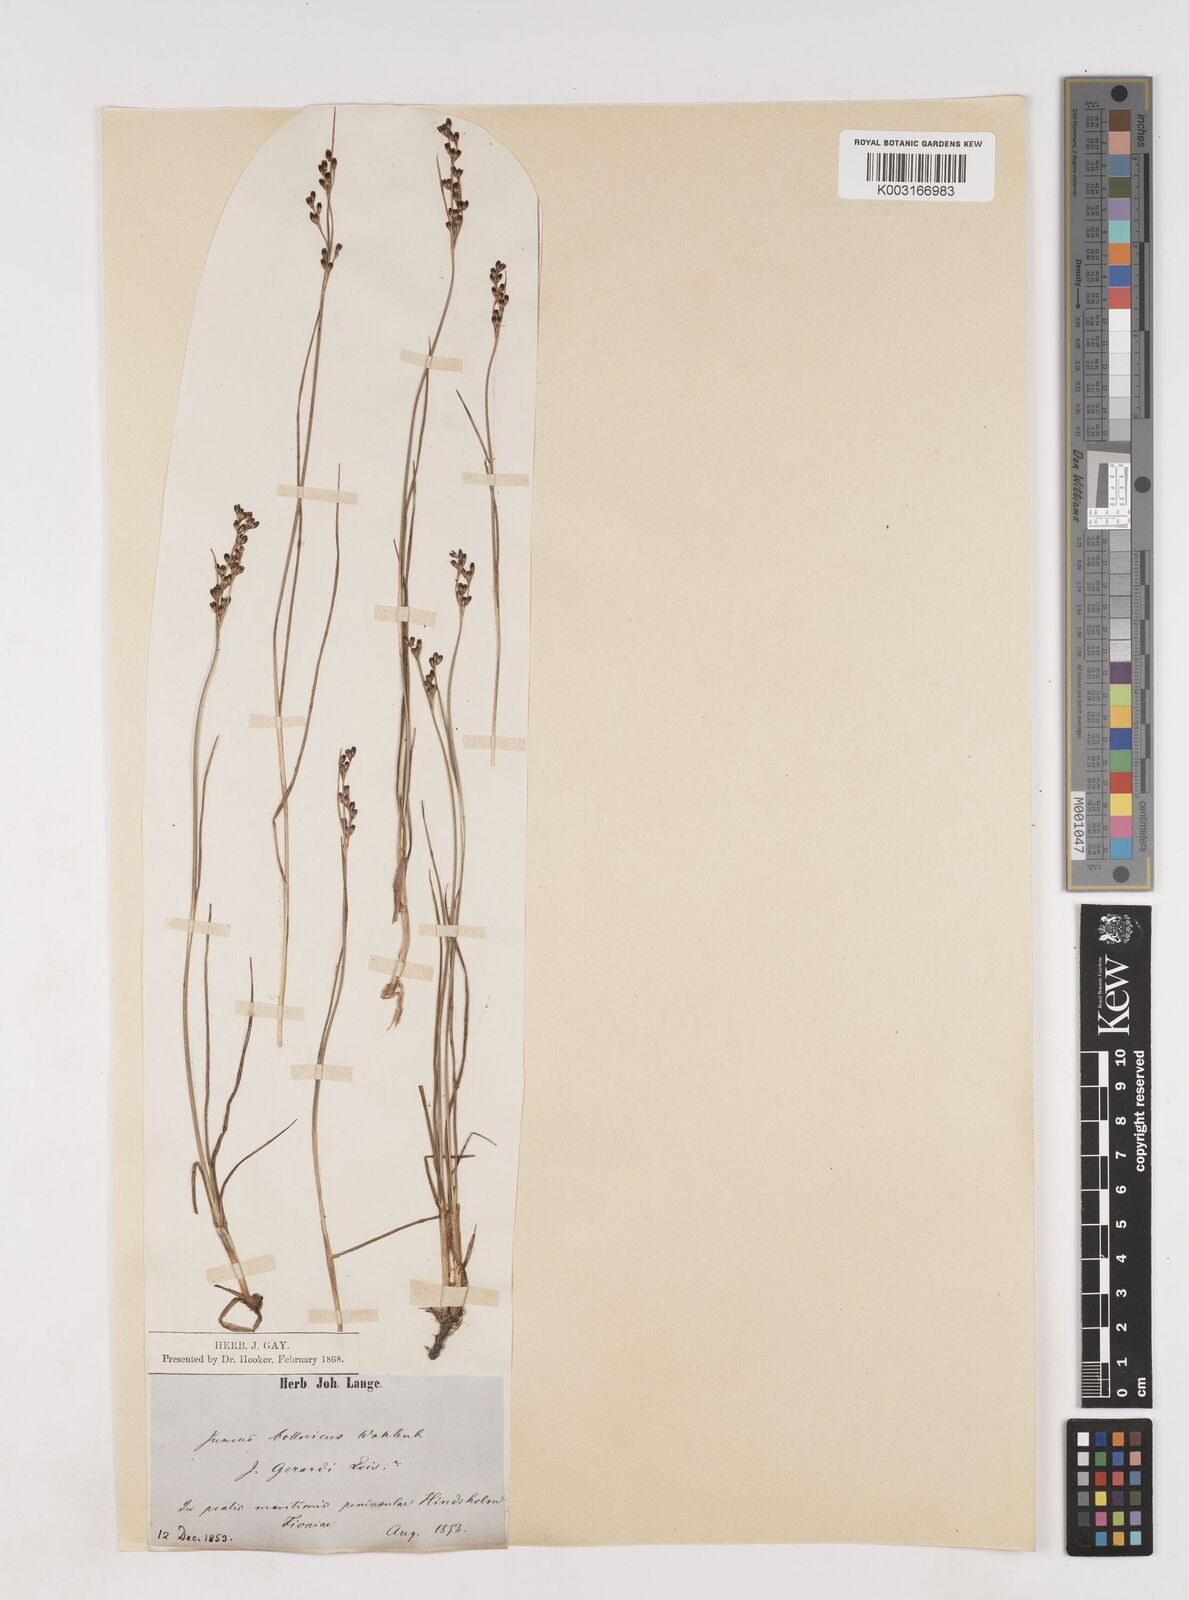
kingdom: Plantae
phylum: Tracheophyta
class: Liliopsida
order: Poales
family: Juncaceae
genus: Juncus
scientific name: Juncus gerardi
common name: Saltmarsh rush
